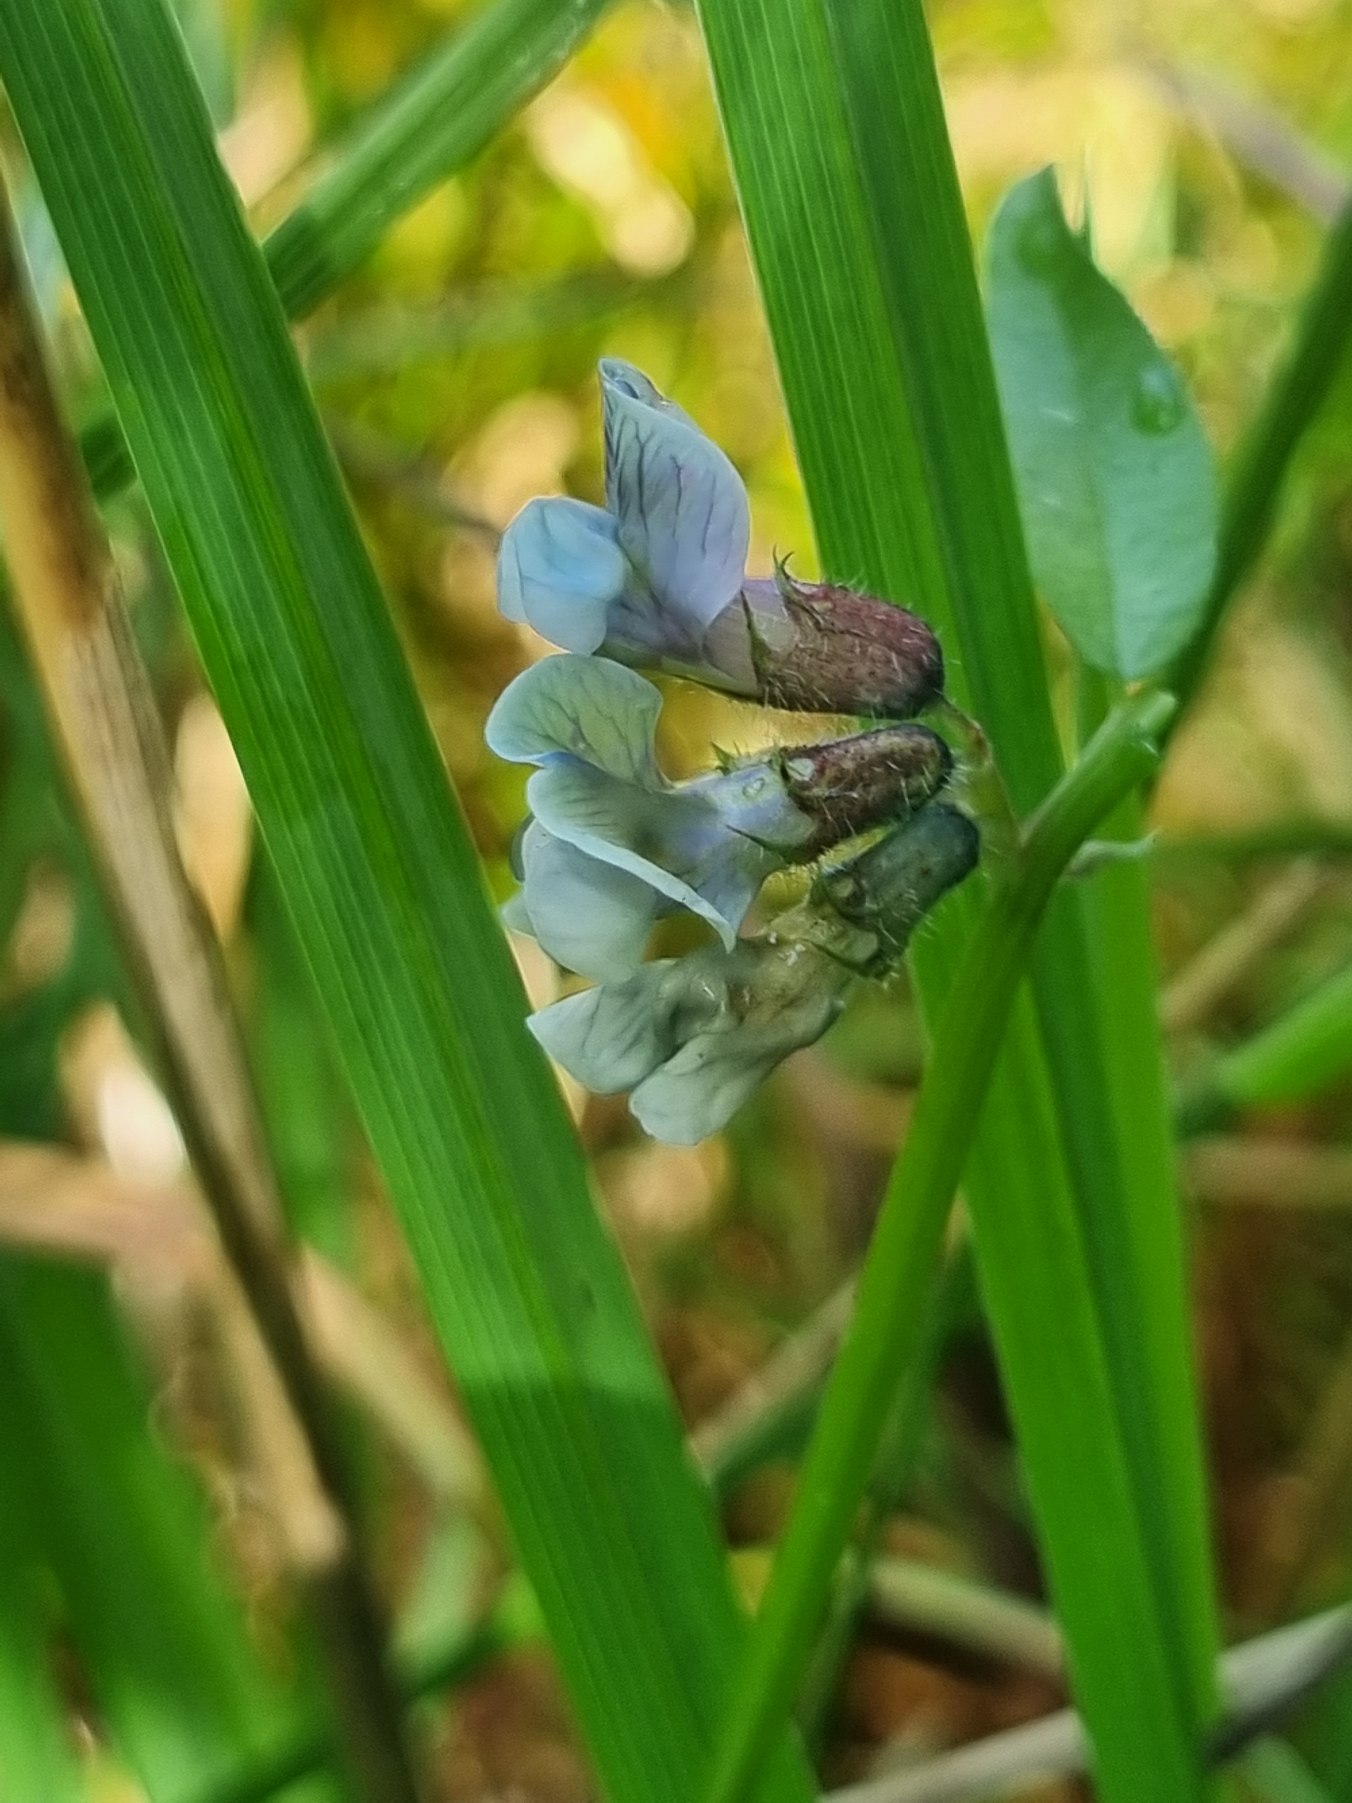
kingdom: Plantae
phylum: Tracheophyta
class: Magnoliopsida
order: Fabales
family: Fabaceae
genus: Vicia
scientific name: Vicia sepium
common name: Sildig gærde-vikke
